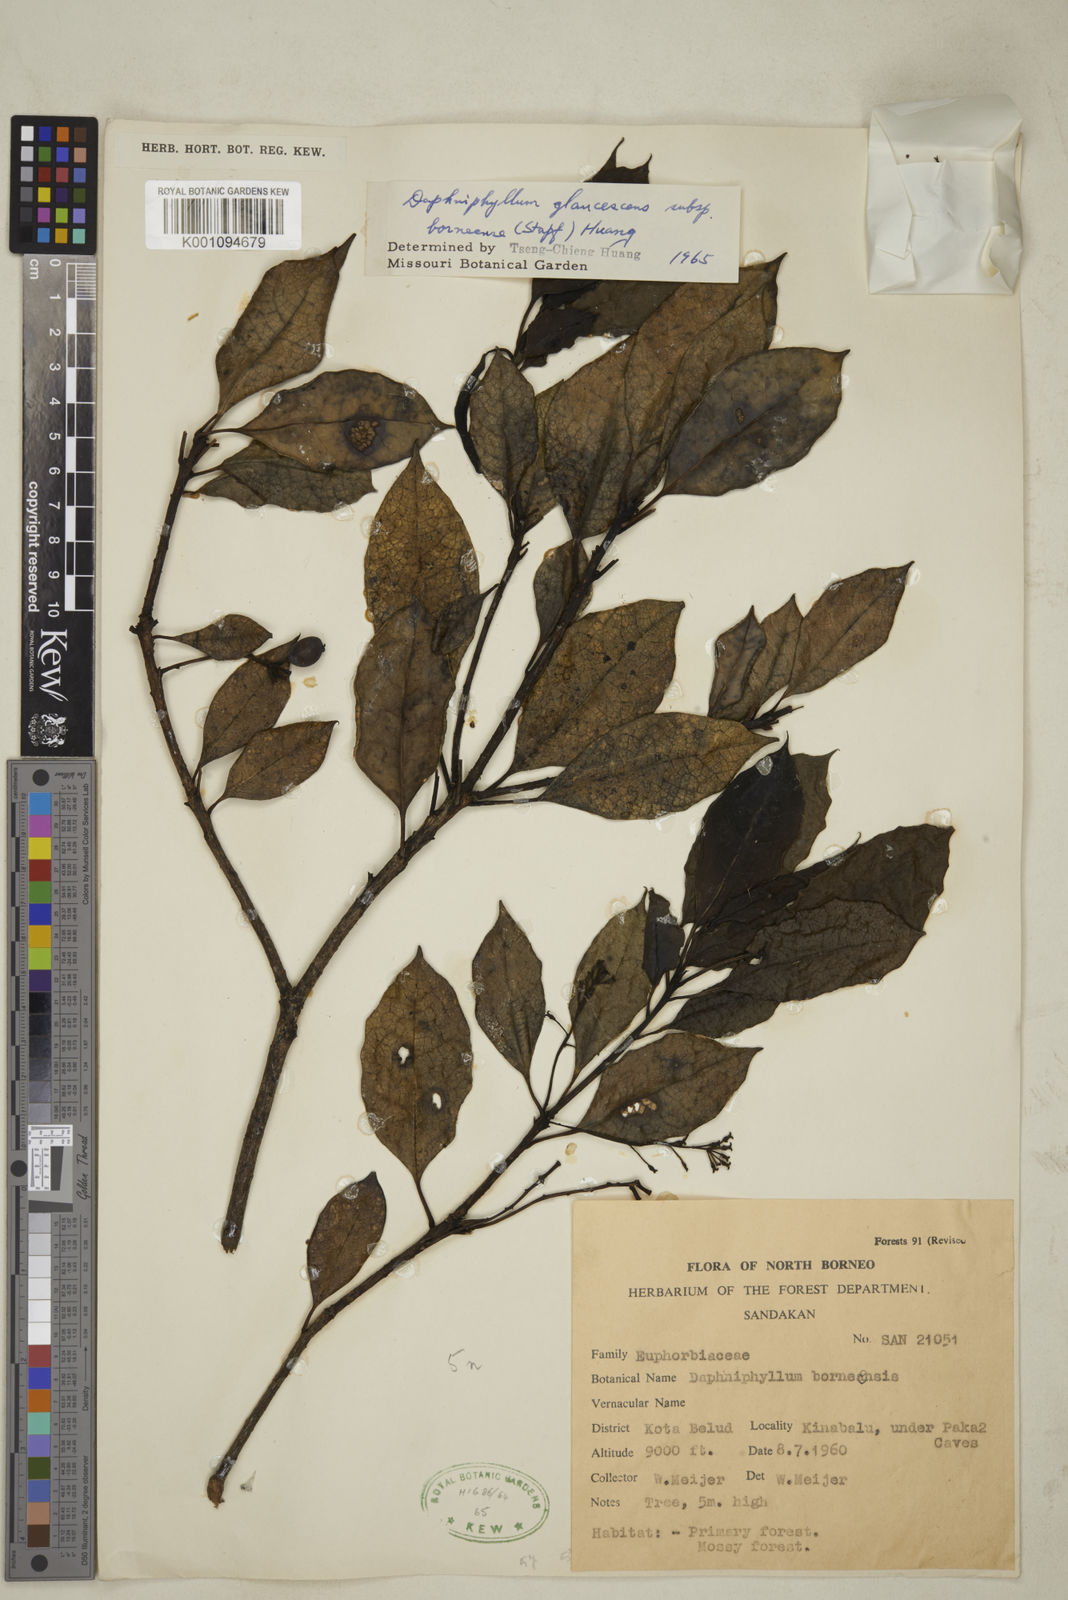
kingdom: Plantae
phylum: Tracheophyta
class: Magnoliopsida
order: Saxifragales
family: Daphniphyllaceae
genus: Daphniphyllum
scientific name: Daphniphyllum borneense
